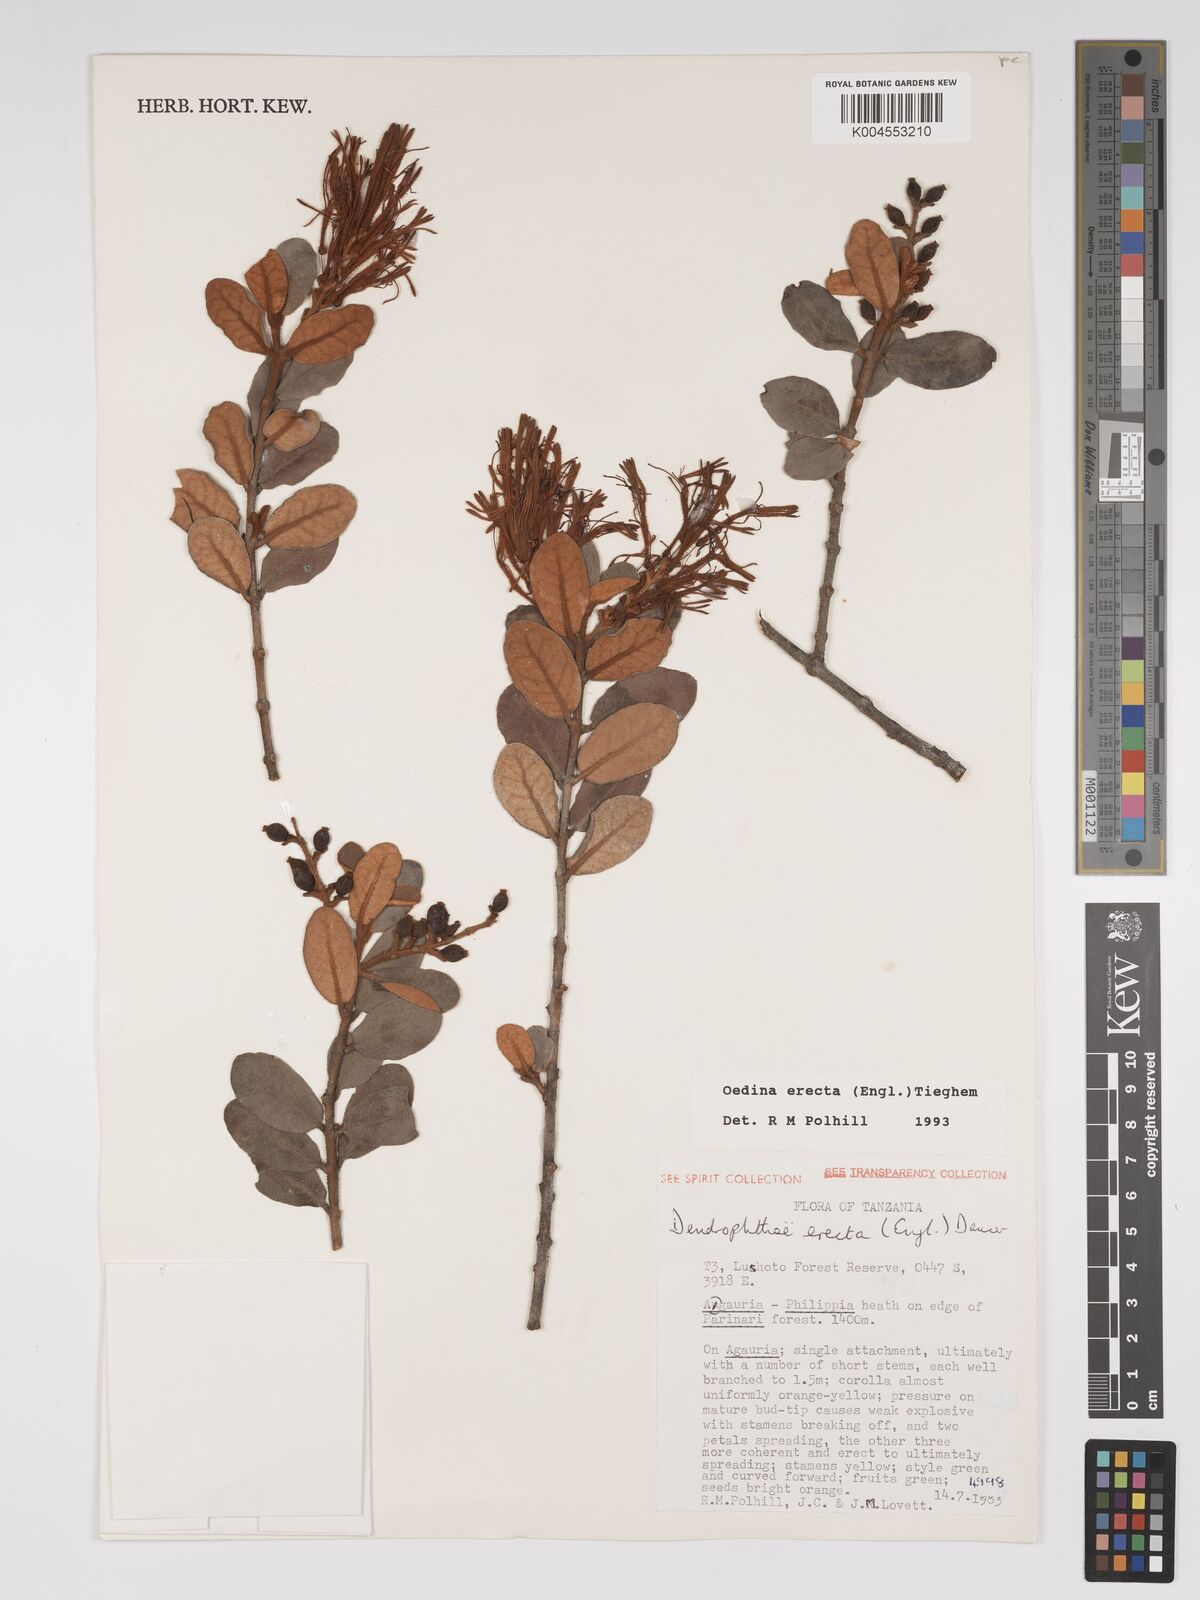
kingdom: Plantae
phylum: Tracheophyta
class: Magnoliopsida
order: Santalales
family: Loranthaceae
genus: Oedina
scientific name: Oedina erecta
